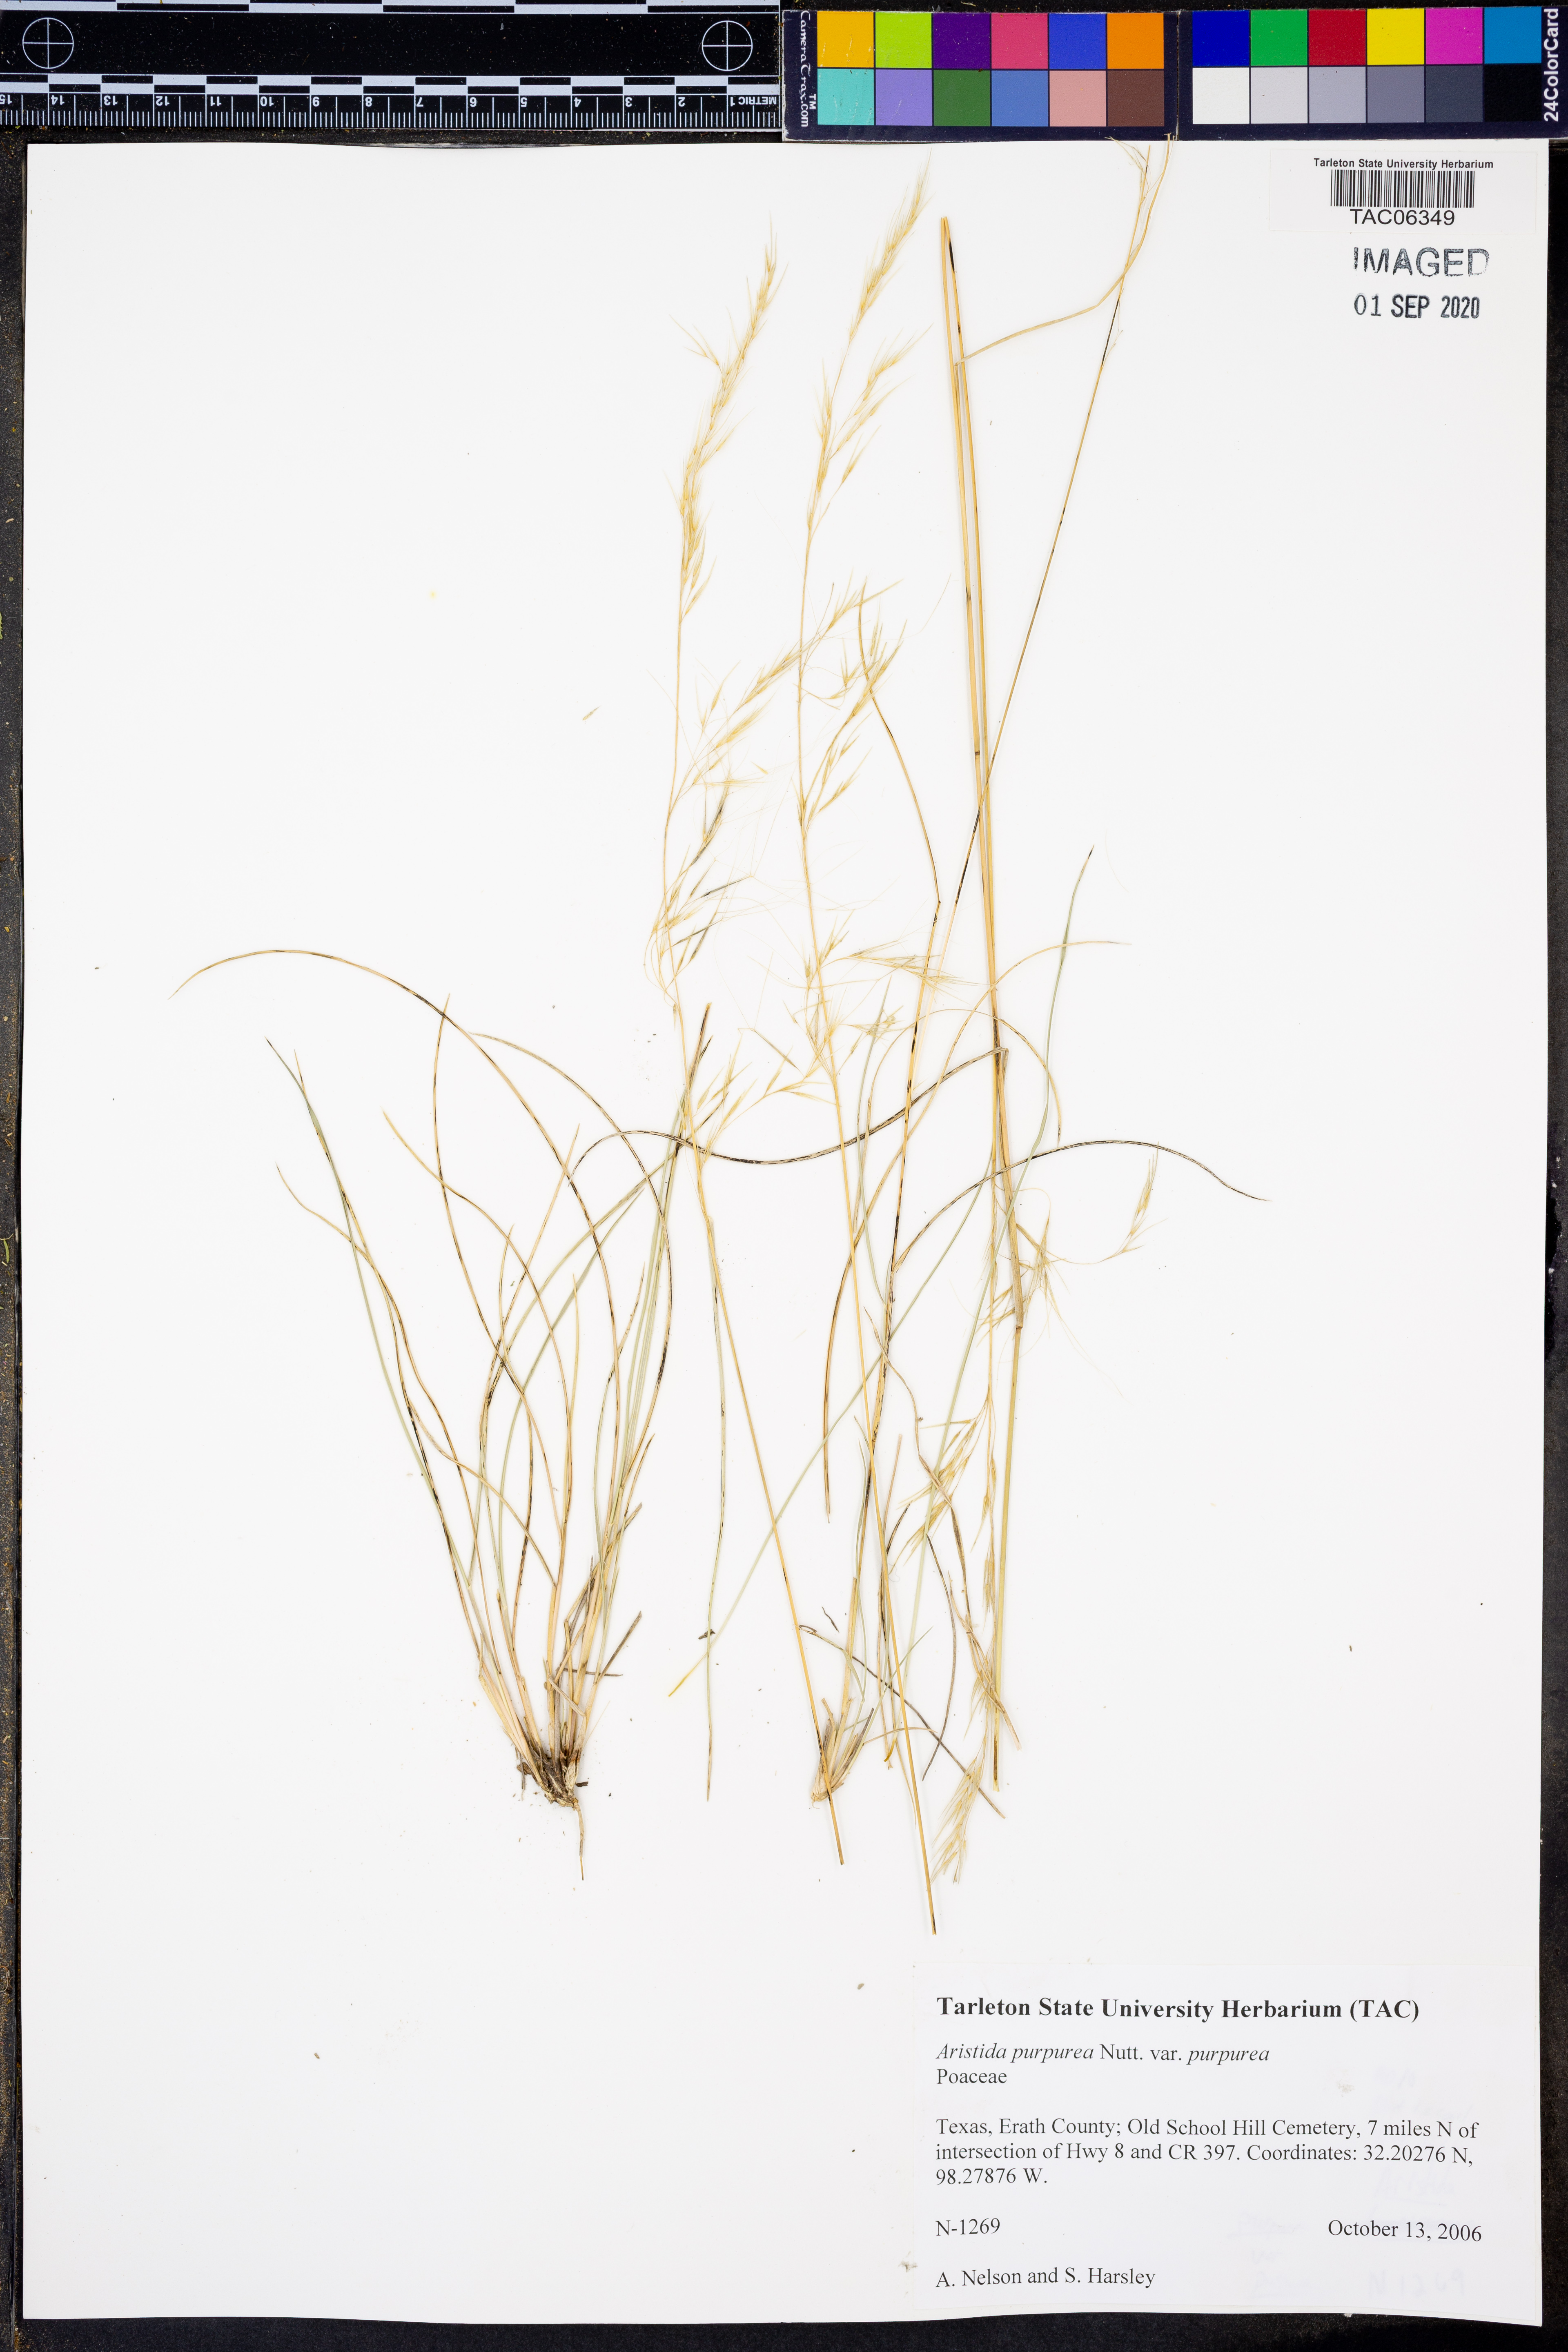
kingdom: Plantae
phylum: Tracheophyta
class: Liliopsida
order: Poales
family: Poaceae
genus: Aristida
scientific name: Aristida purpurea
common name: Purple threeawn
